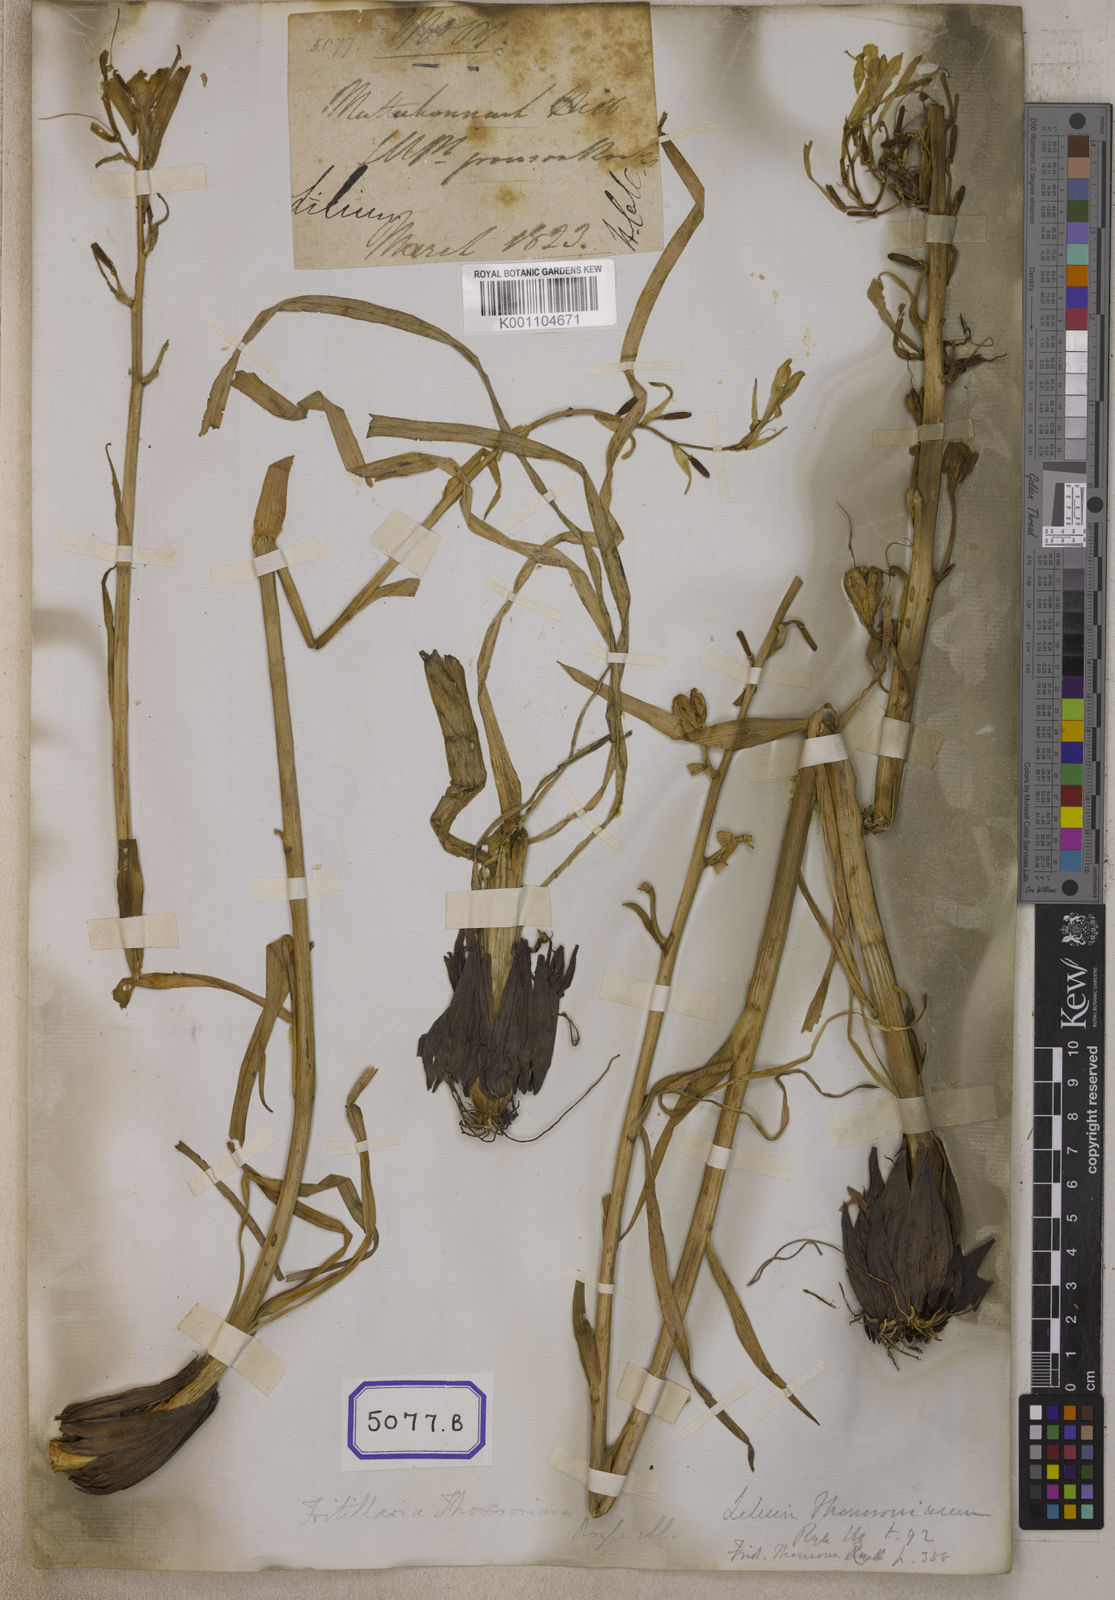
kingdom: Plantae
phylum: Tracheophyta
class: Liliopsida
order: Liliales
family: Liliaceae
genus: Lilium
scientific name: Lilium
